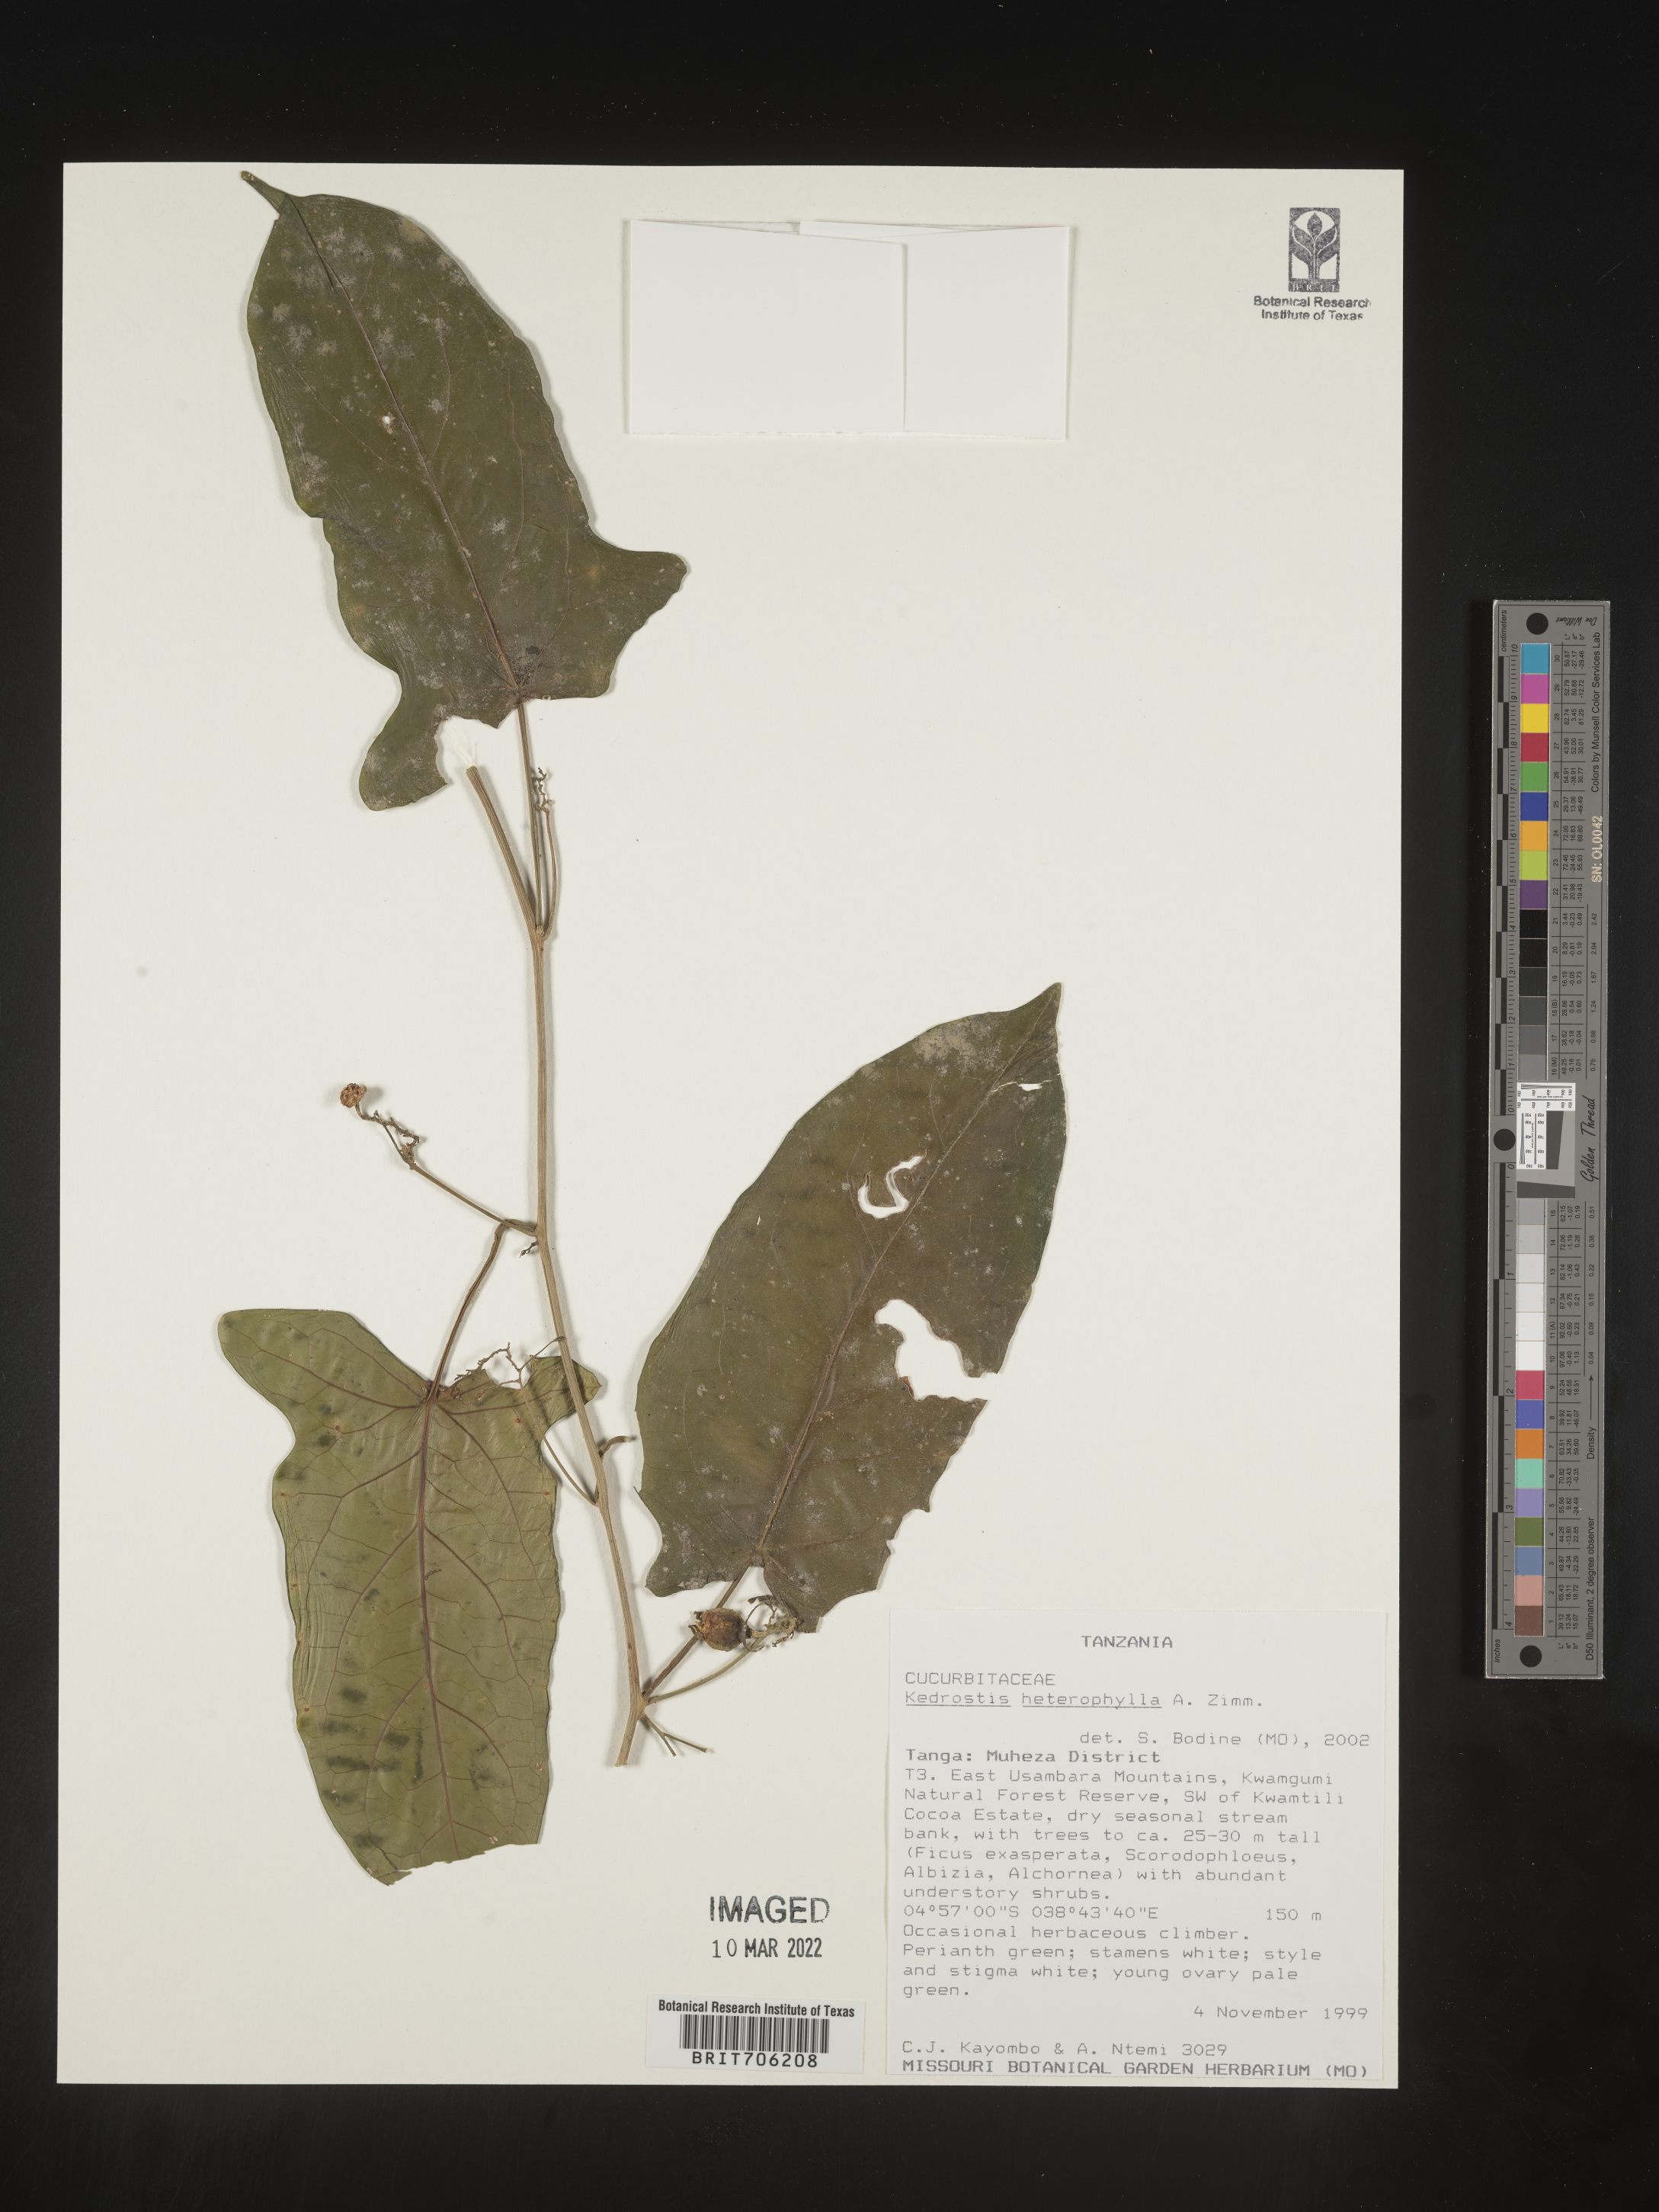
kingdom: Plantae
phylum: Tracheophyta
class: Magnoliopsida
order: Cucurbitales
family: Cucurbitaceae
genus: Kedrostis
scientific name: Kedrostis
